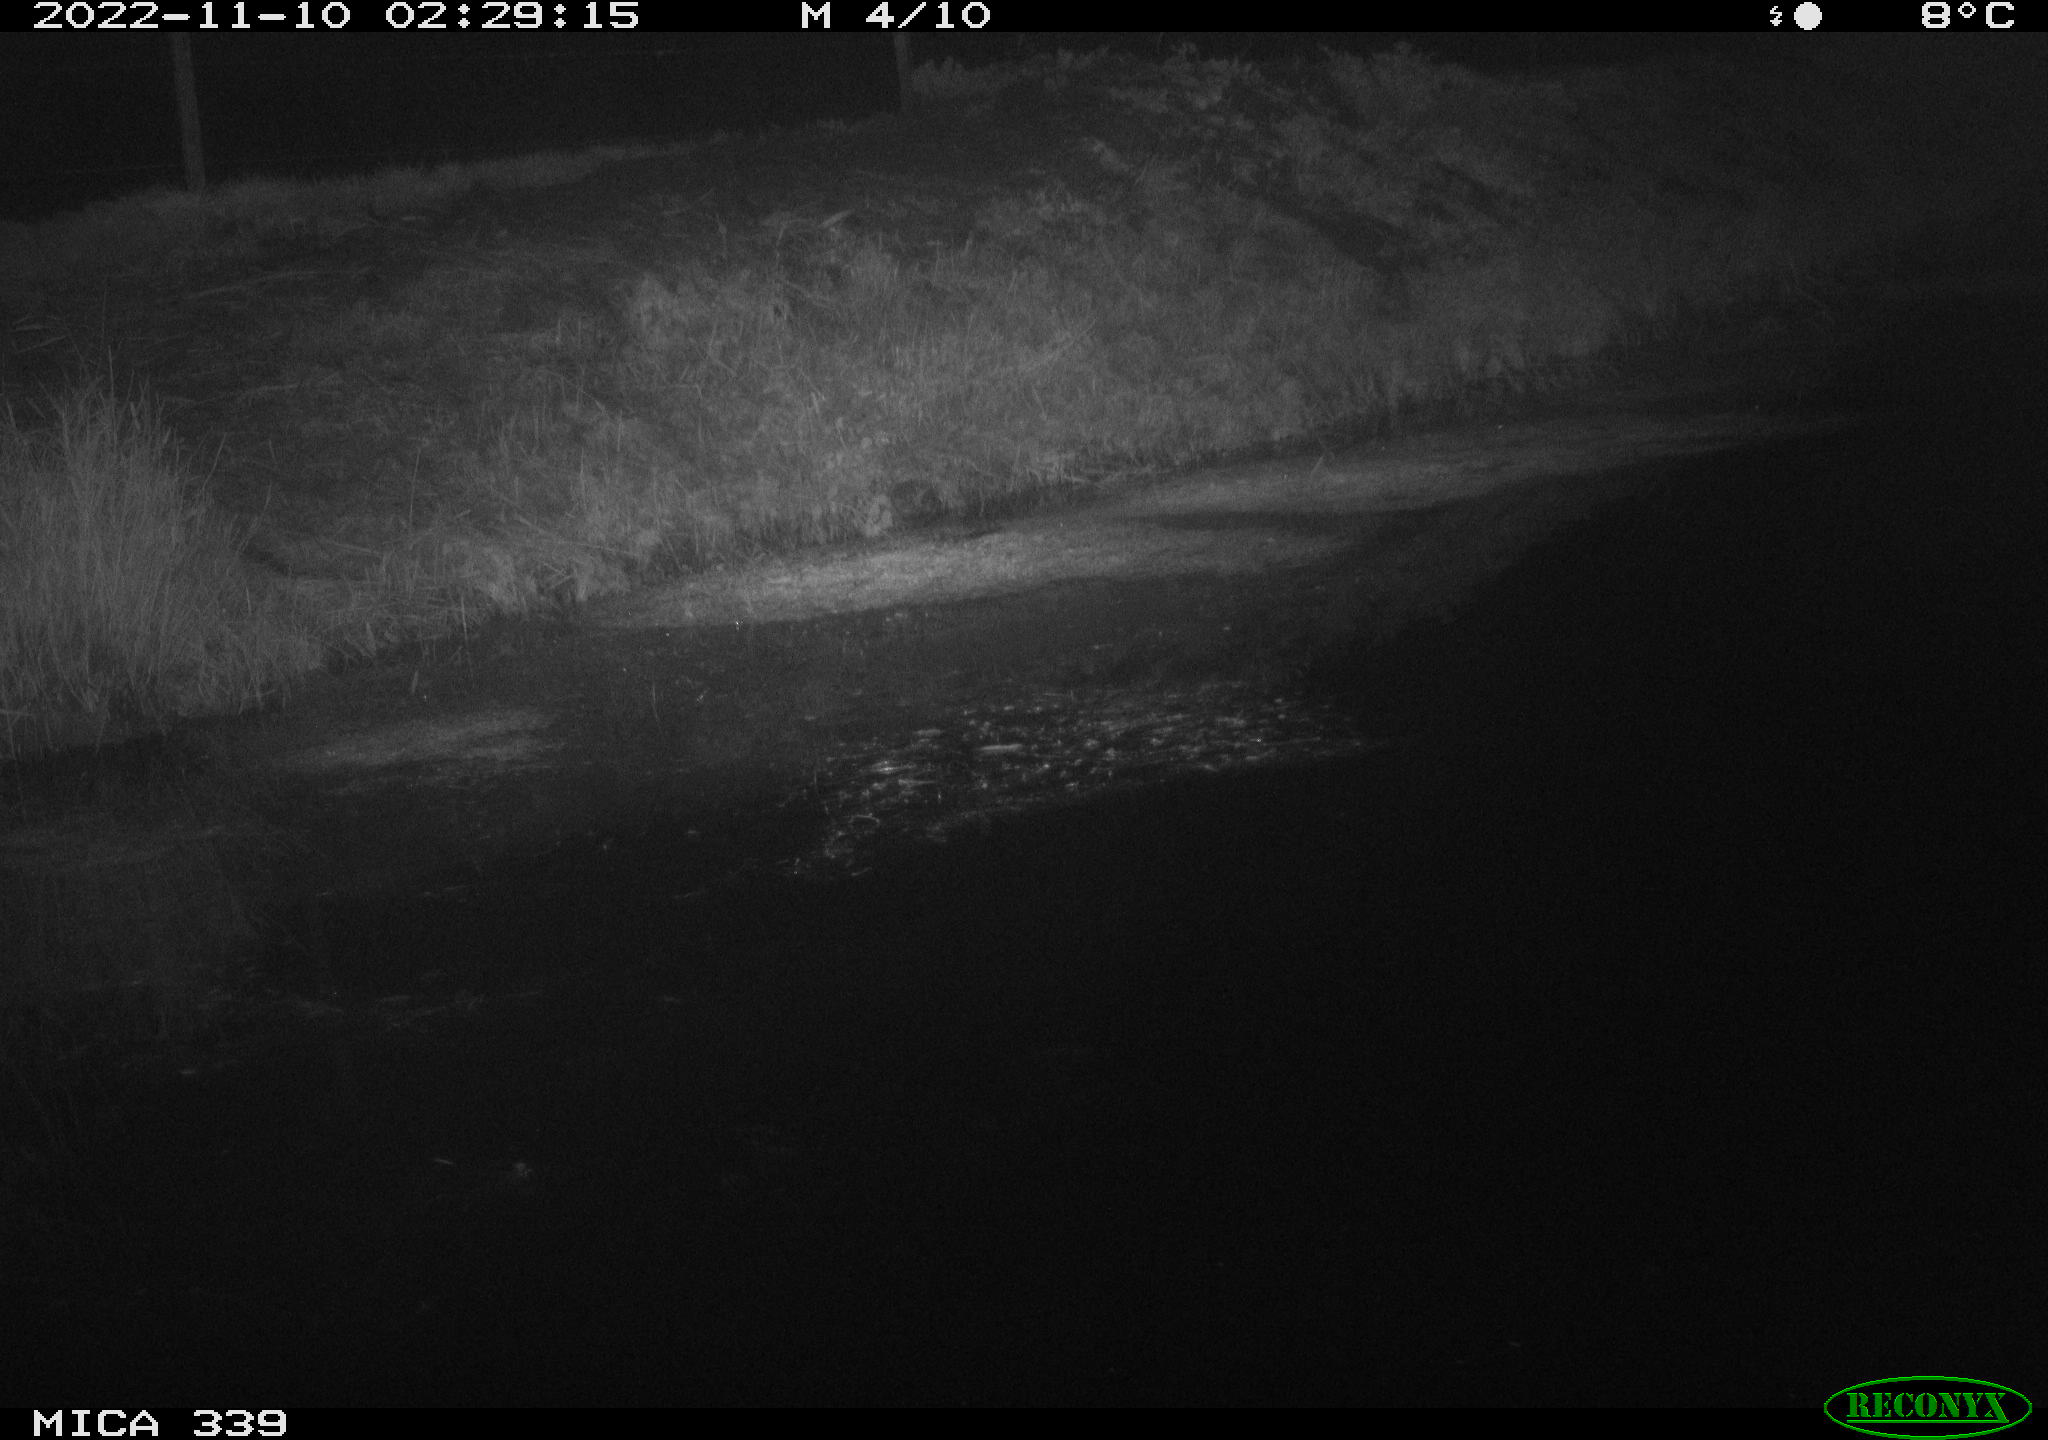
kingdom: Animalia
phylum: Chordata
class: Aves
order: Pelecaniformes
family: Ardeidae
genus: Ardea
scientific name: Ardea cinerea
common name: Grey heron
